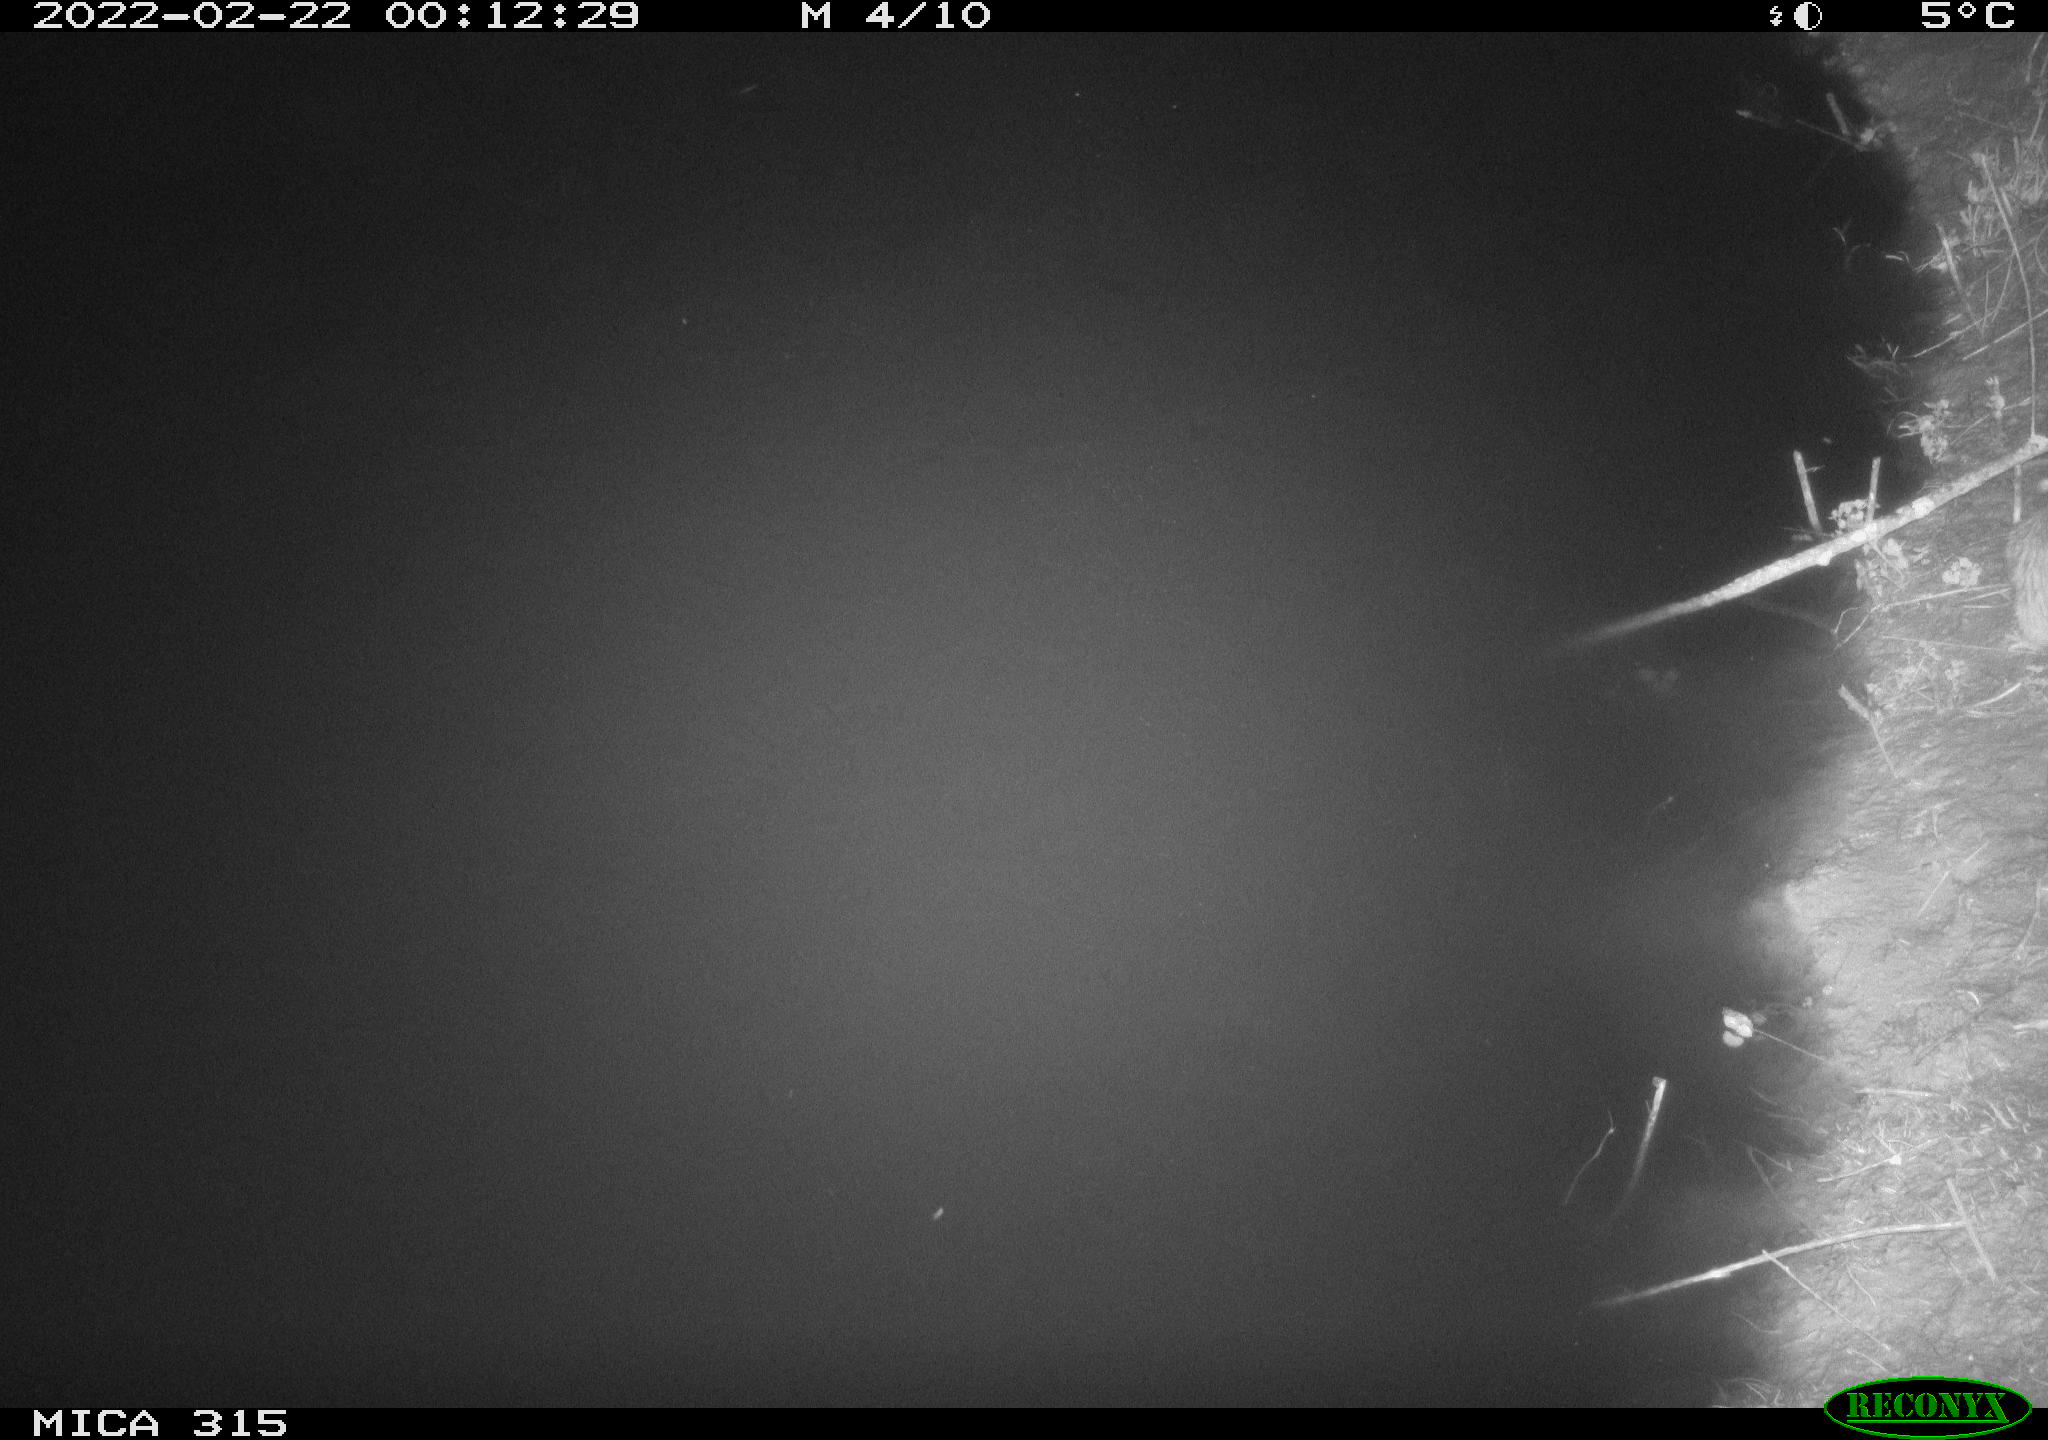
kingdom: Animalia
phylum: Chordata
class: Mammalia
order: Rodentia
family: Muridae
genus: Rattus
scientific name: Rattus norvegicus
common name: Brown rat
